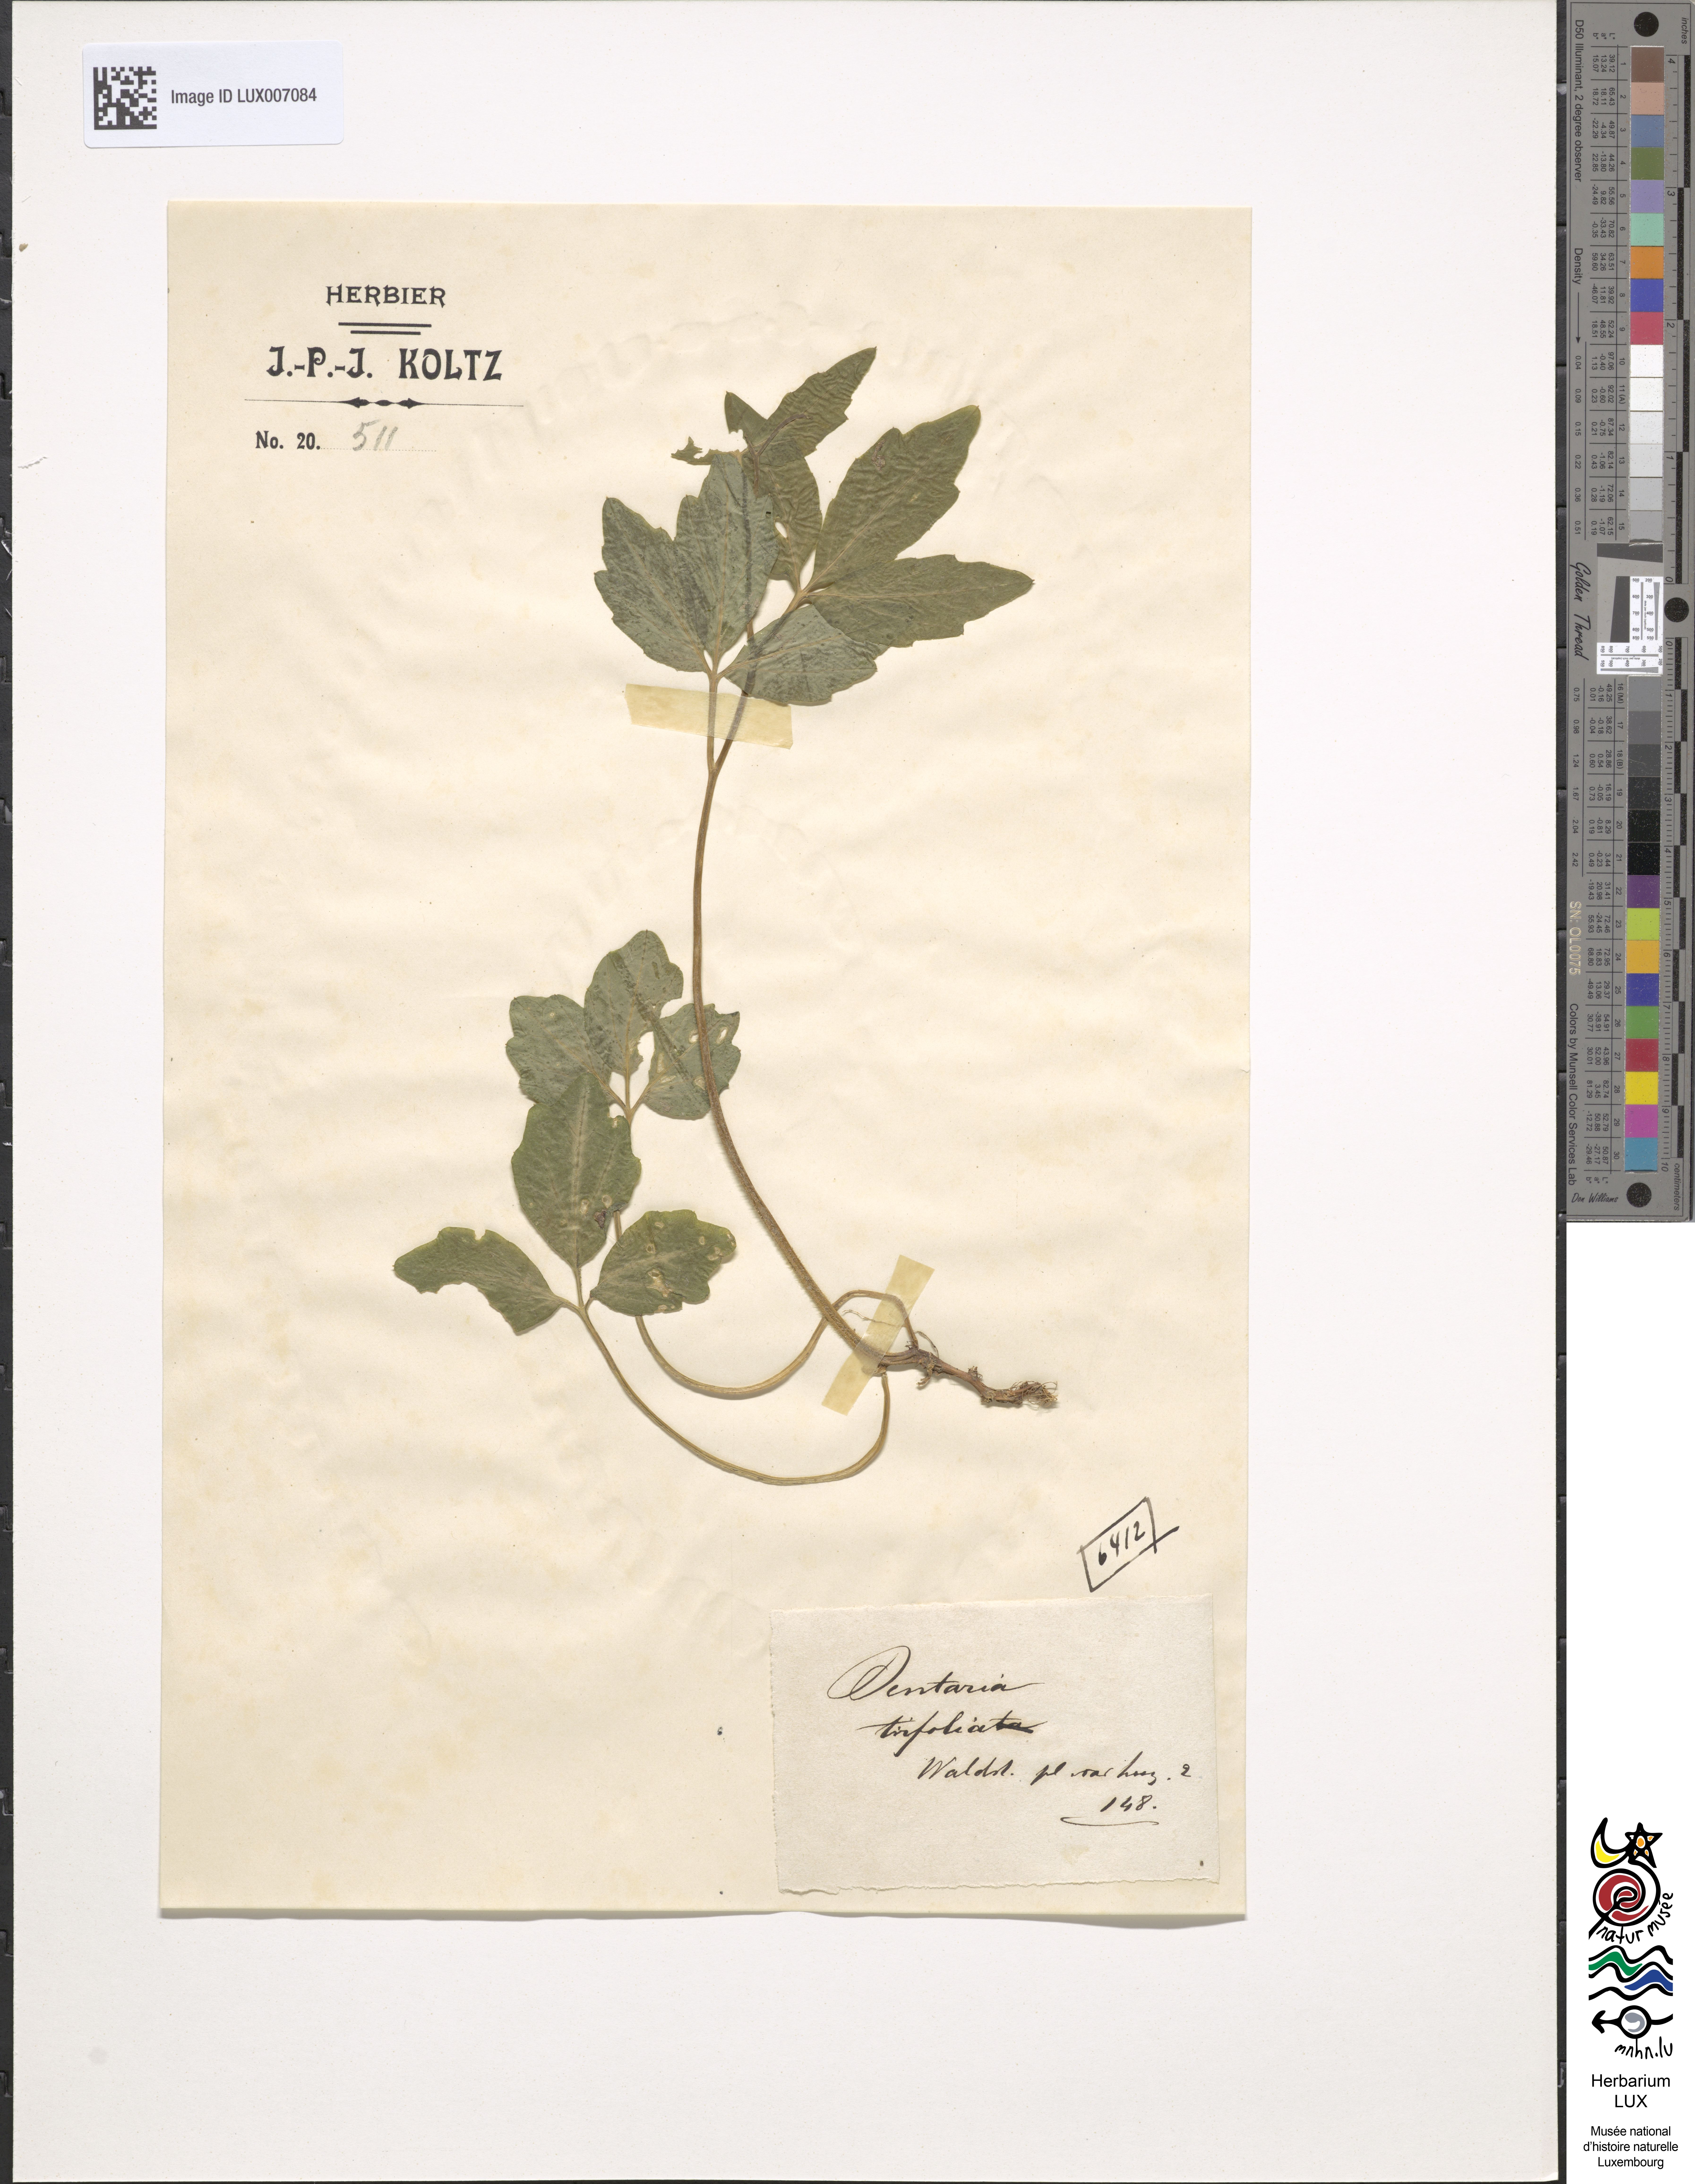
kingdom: Plantae
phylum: Tracheophyta
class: Magnoliopsida
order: Brassicales
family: Brassicaceae
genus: Cardamine
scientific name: Cardamine waldsteinii
